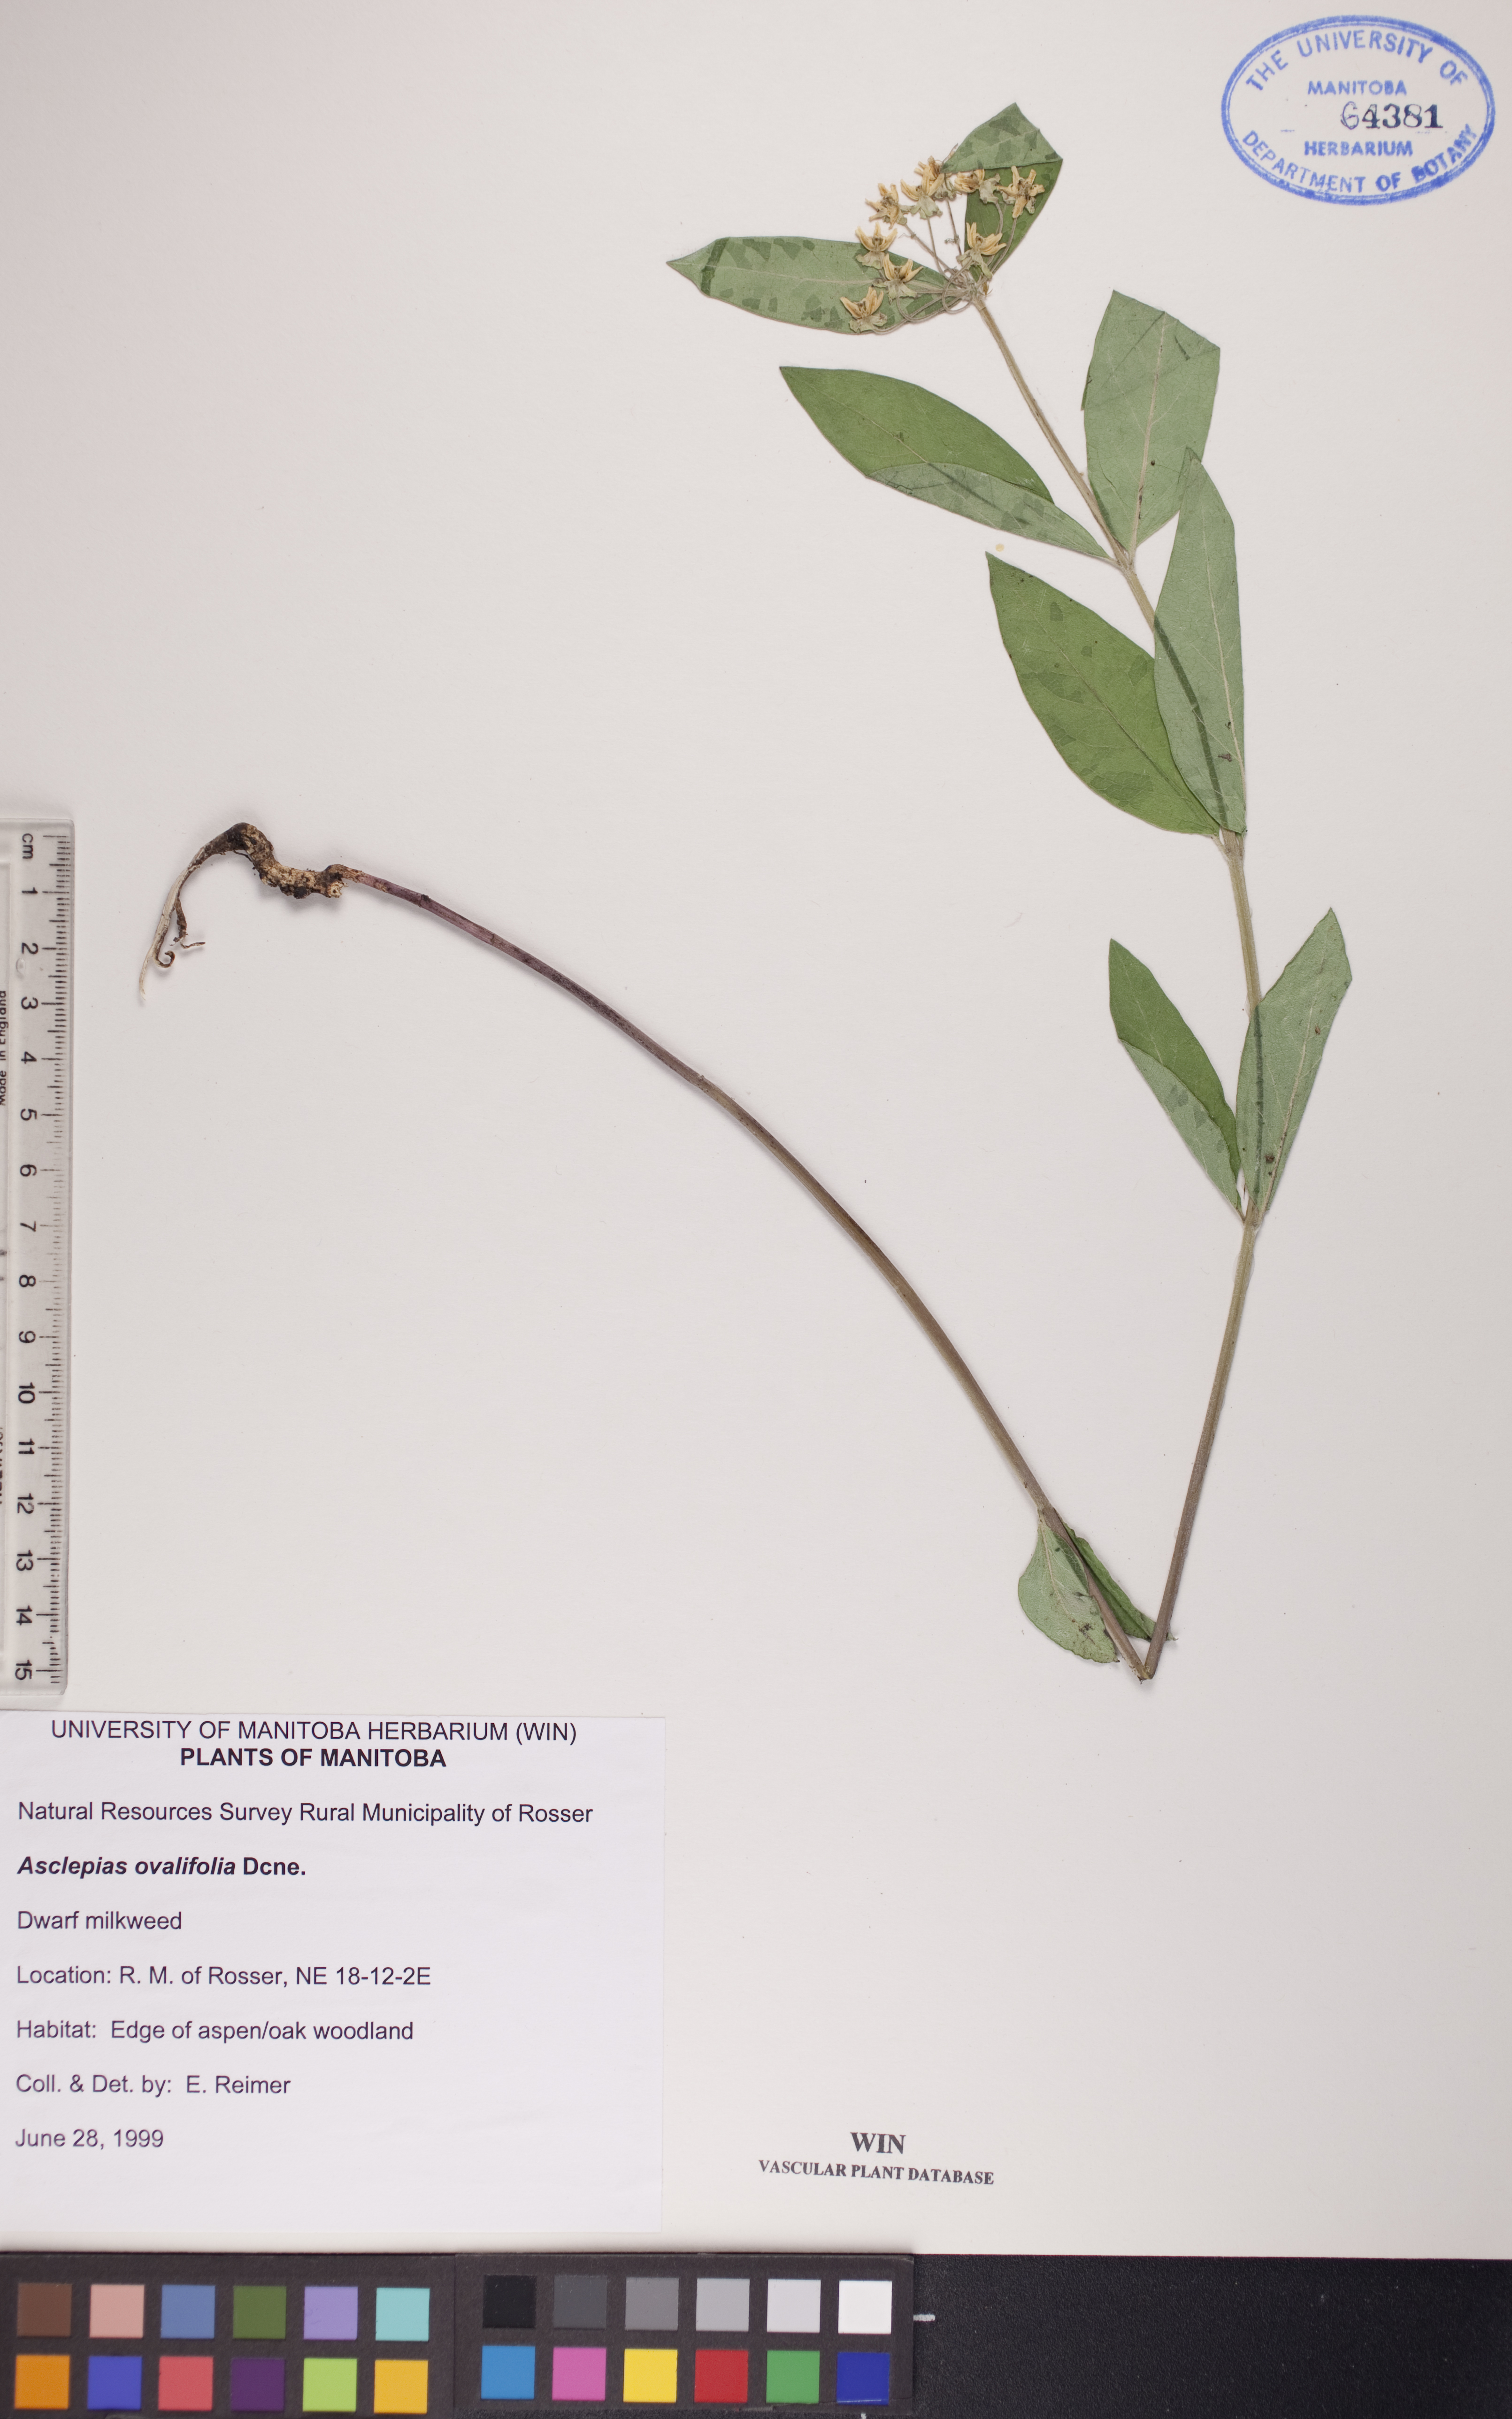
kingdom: Plantae
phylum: Tracheophyta
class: Magnoliopsida
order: Gentianales
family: Apocynaceae
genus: Asclepias
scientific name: Asclepias ovalifolia
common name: Dwarf milkweed
